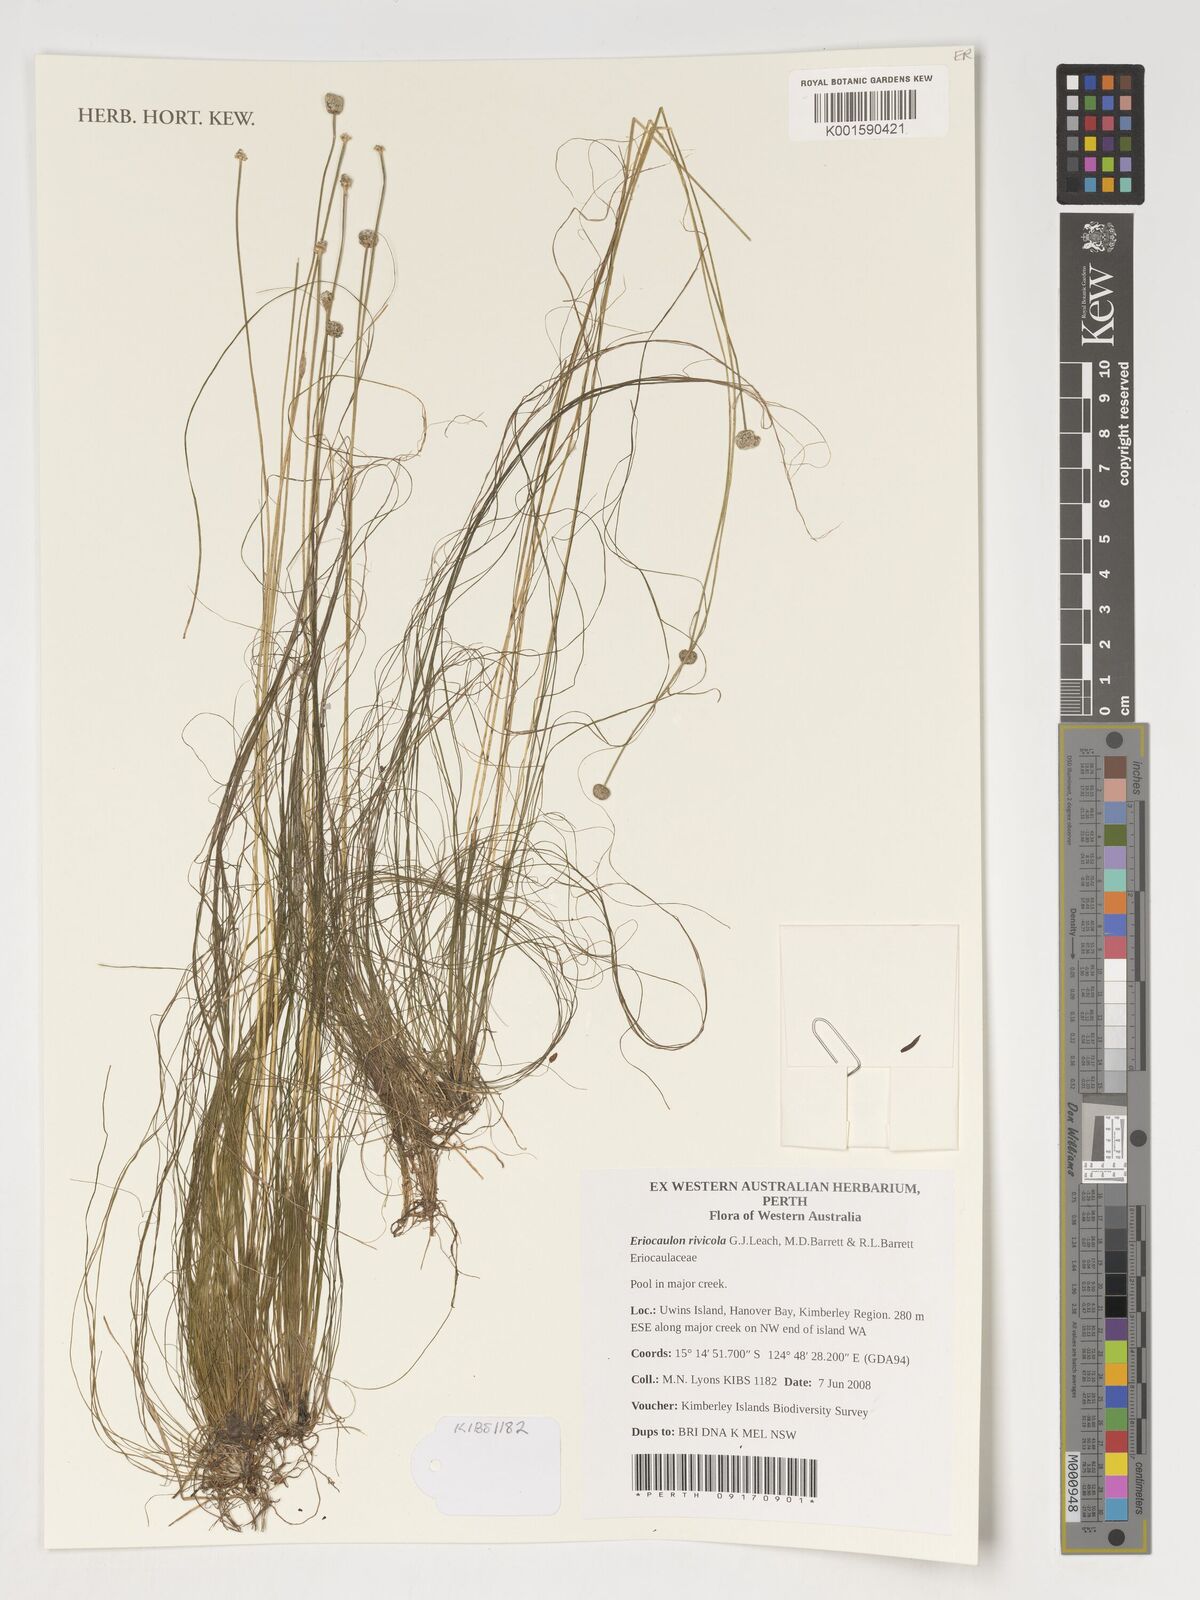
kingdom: Plantae
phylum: Tracheophyta
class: Liliopsida
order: Poales
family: Eriocaulaceae
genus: Eriocaulon
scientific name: Eriocaulon rivicola
